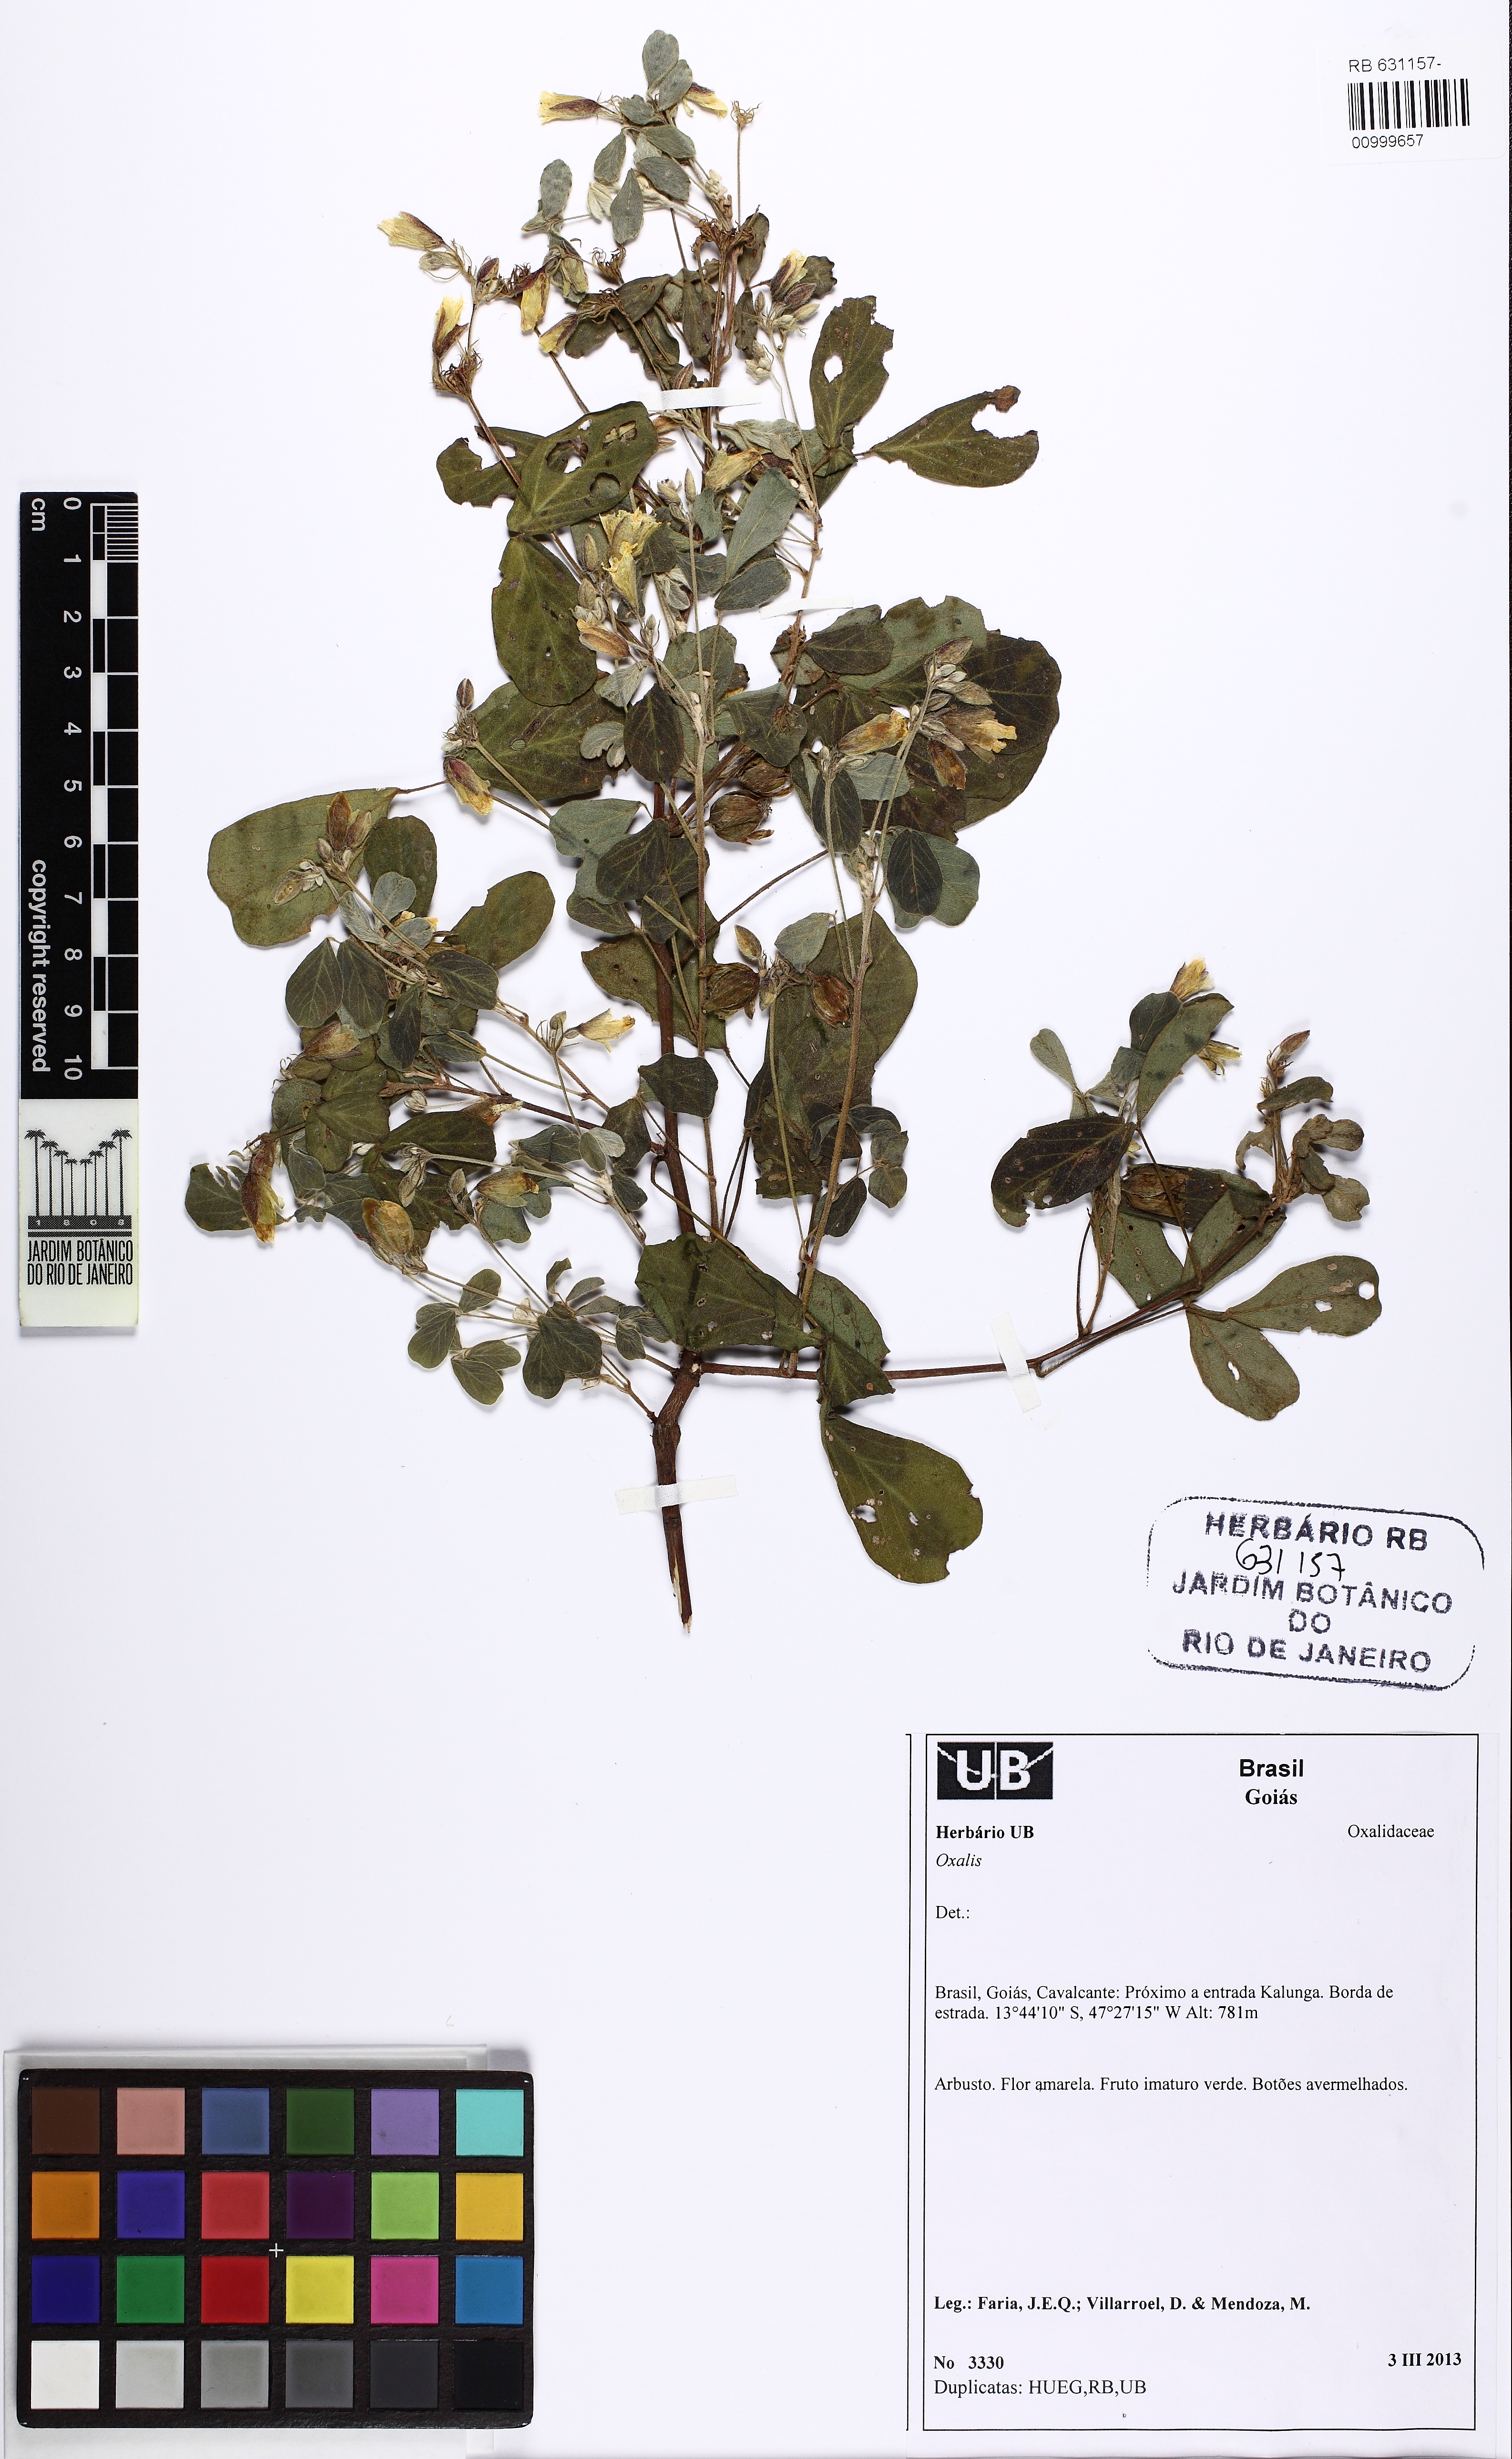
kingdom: Plantae
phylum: Tracheophyta
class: Magnoliopsida
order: Oxalidales
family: Oxalidaceae
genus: Oxalis
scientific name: Oxalis
